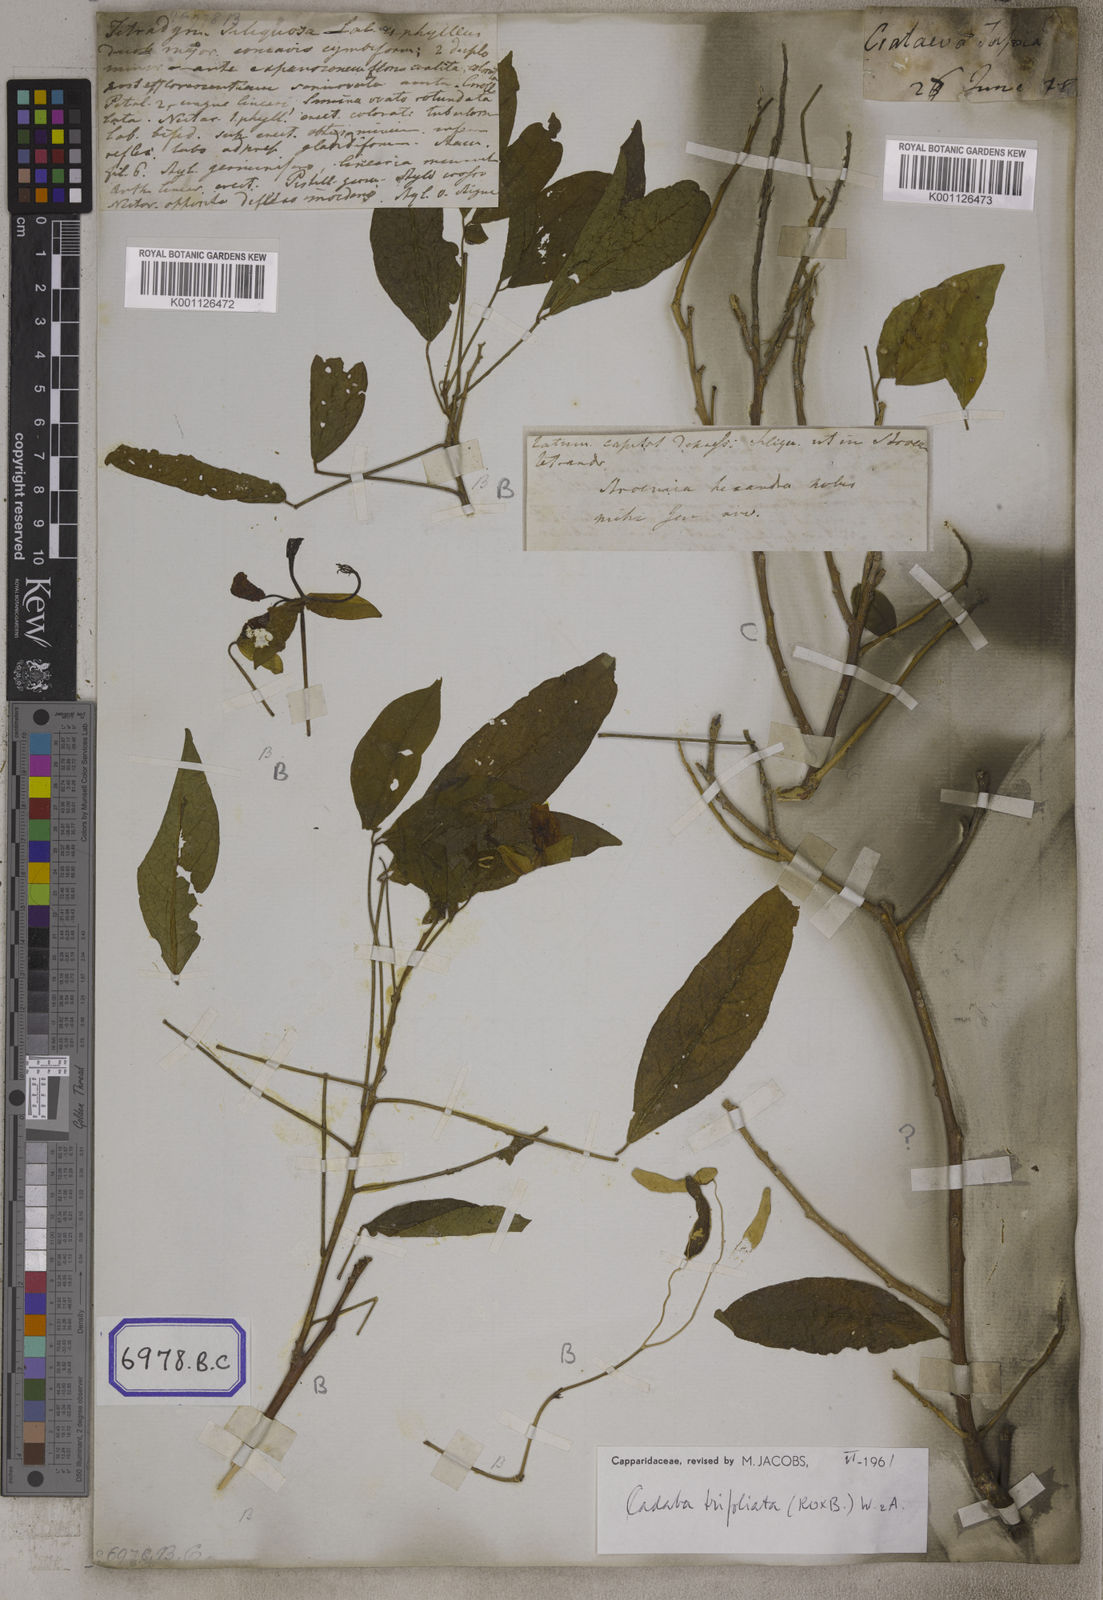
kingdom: Plantae
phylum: Tracheophyta
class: Magnoliopsida
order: Brassicales
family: Capparaceae
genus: Cadaba
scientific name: Cadaba trifoliata
